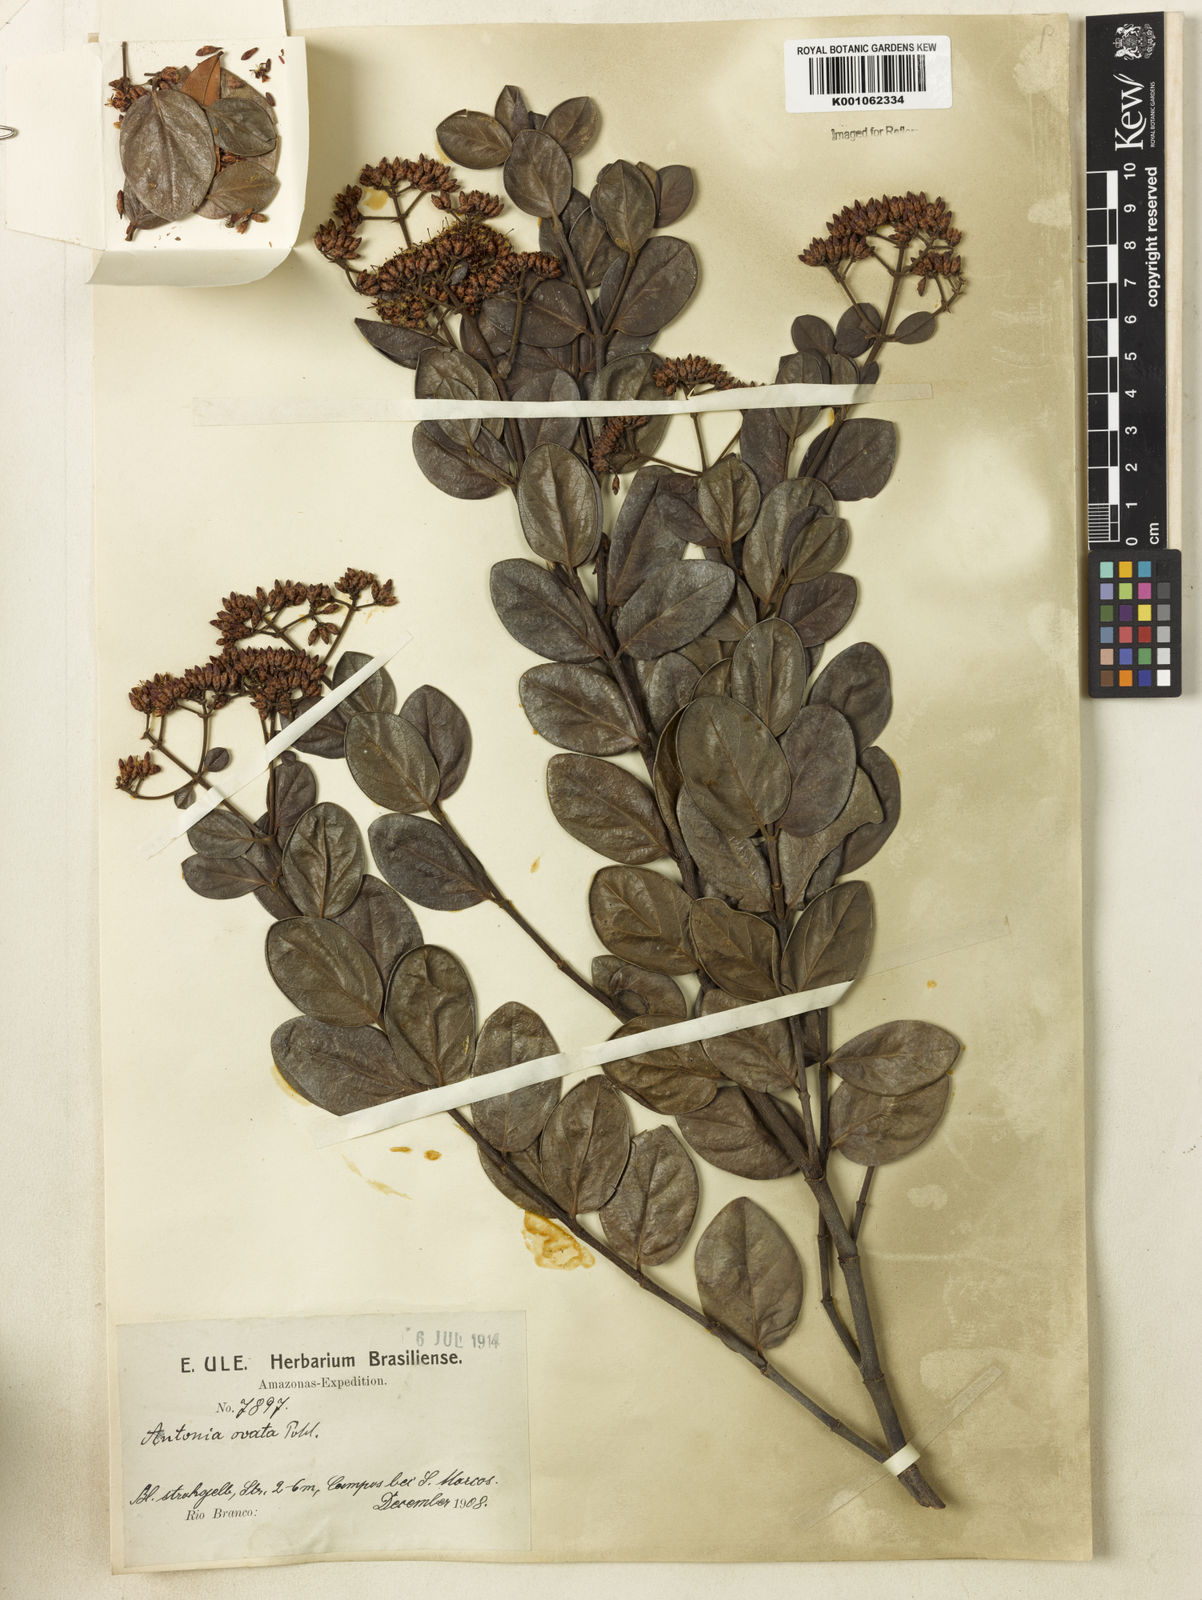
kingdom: Plantae
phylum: Tracheophyta
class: Magnoliopsida
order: Gentianales
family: Loganiaceae
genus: Antonia
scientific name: Antonia ovata
